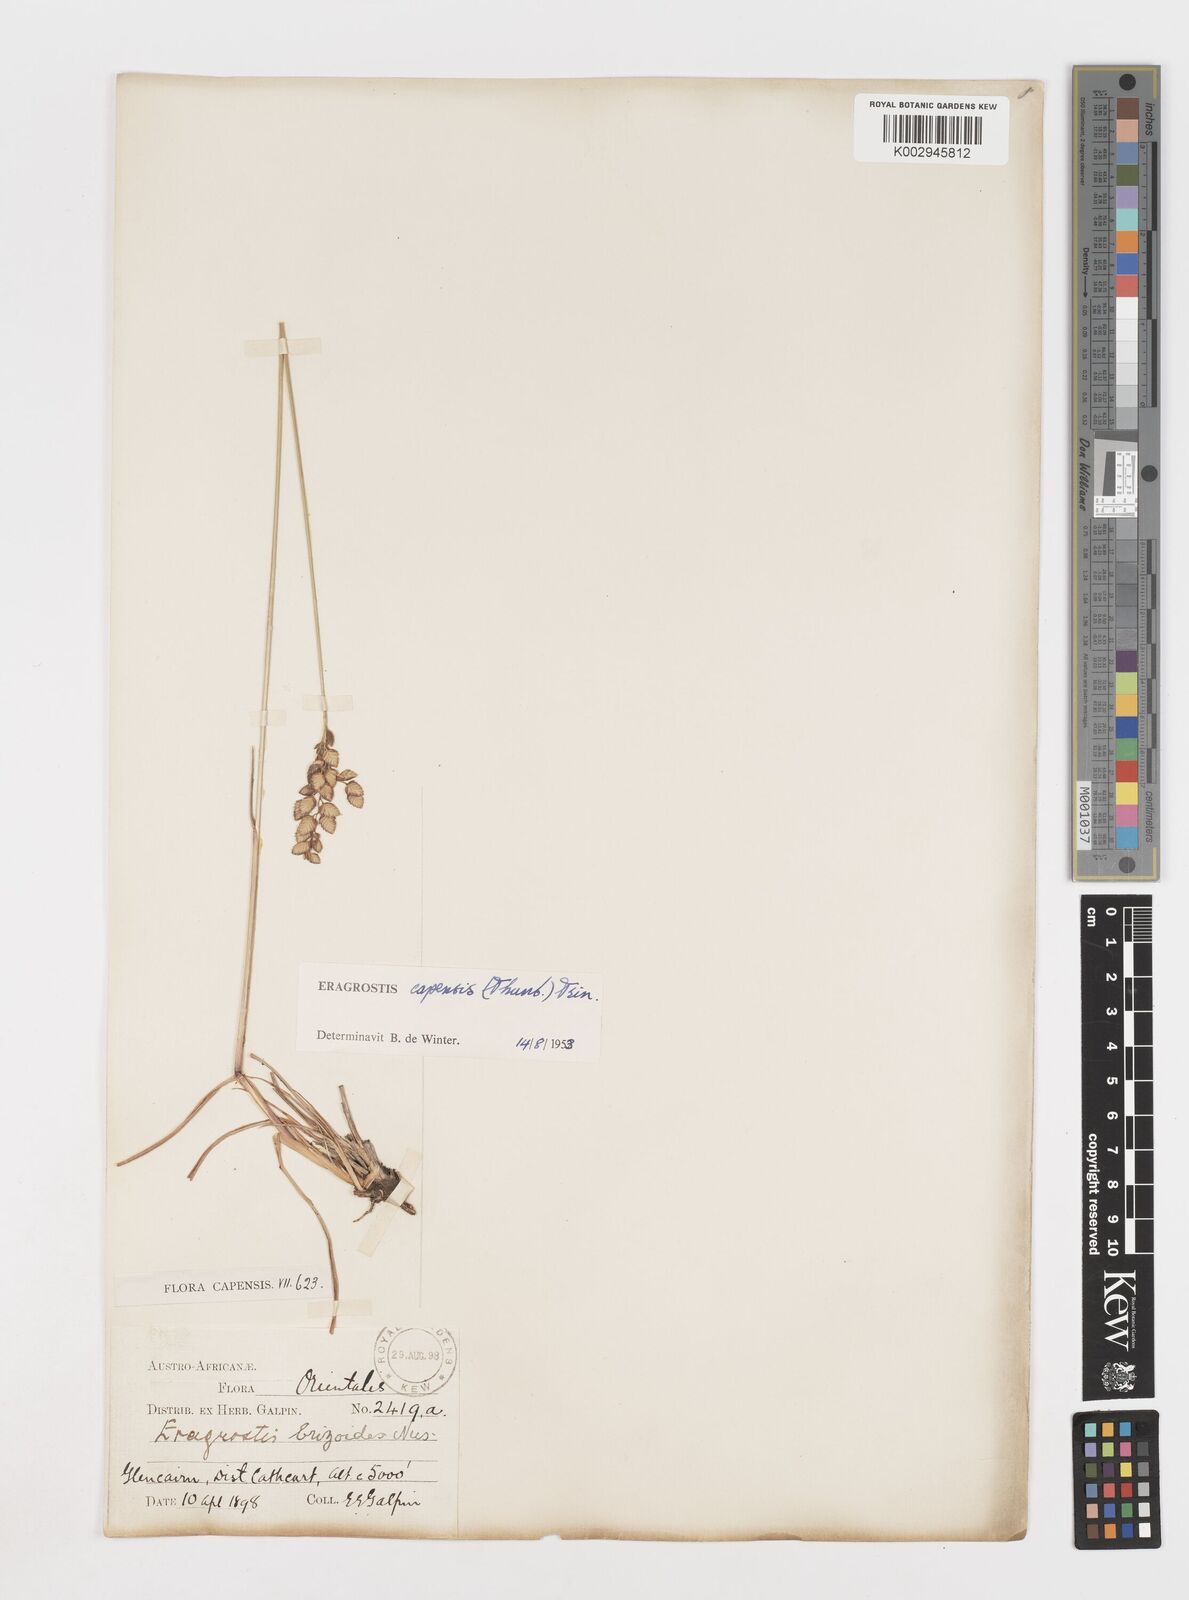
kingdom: Plantae
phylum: Tracheophyta
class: Liliopsida
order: Poales
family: Poaceae
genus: Eragrostis
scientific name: Eragrostis capensis
